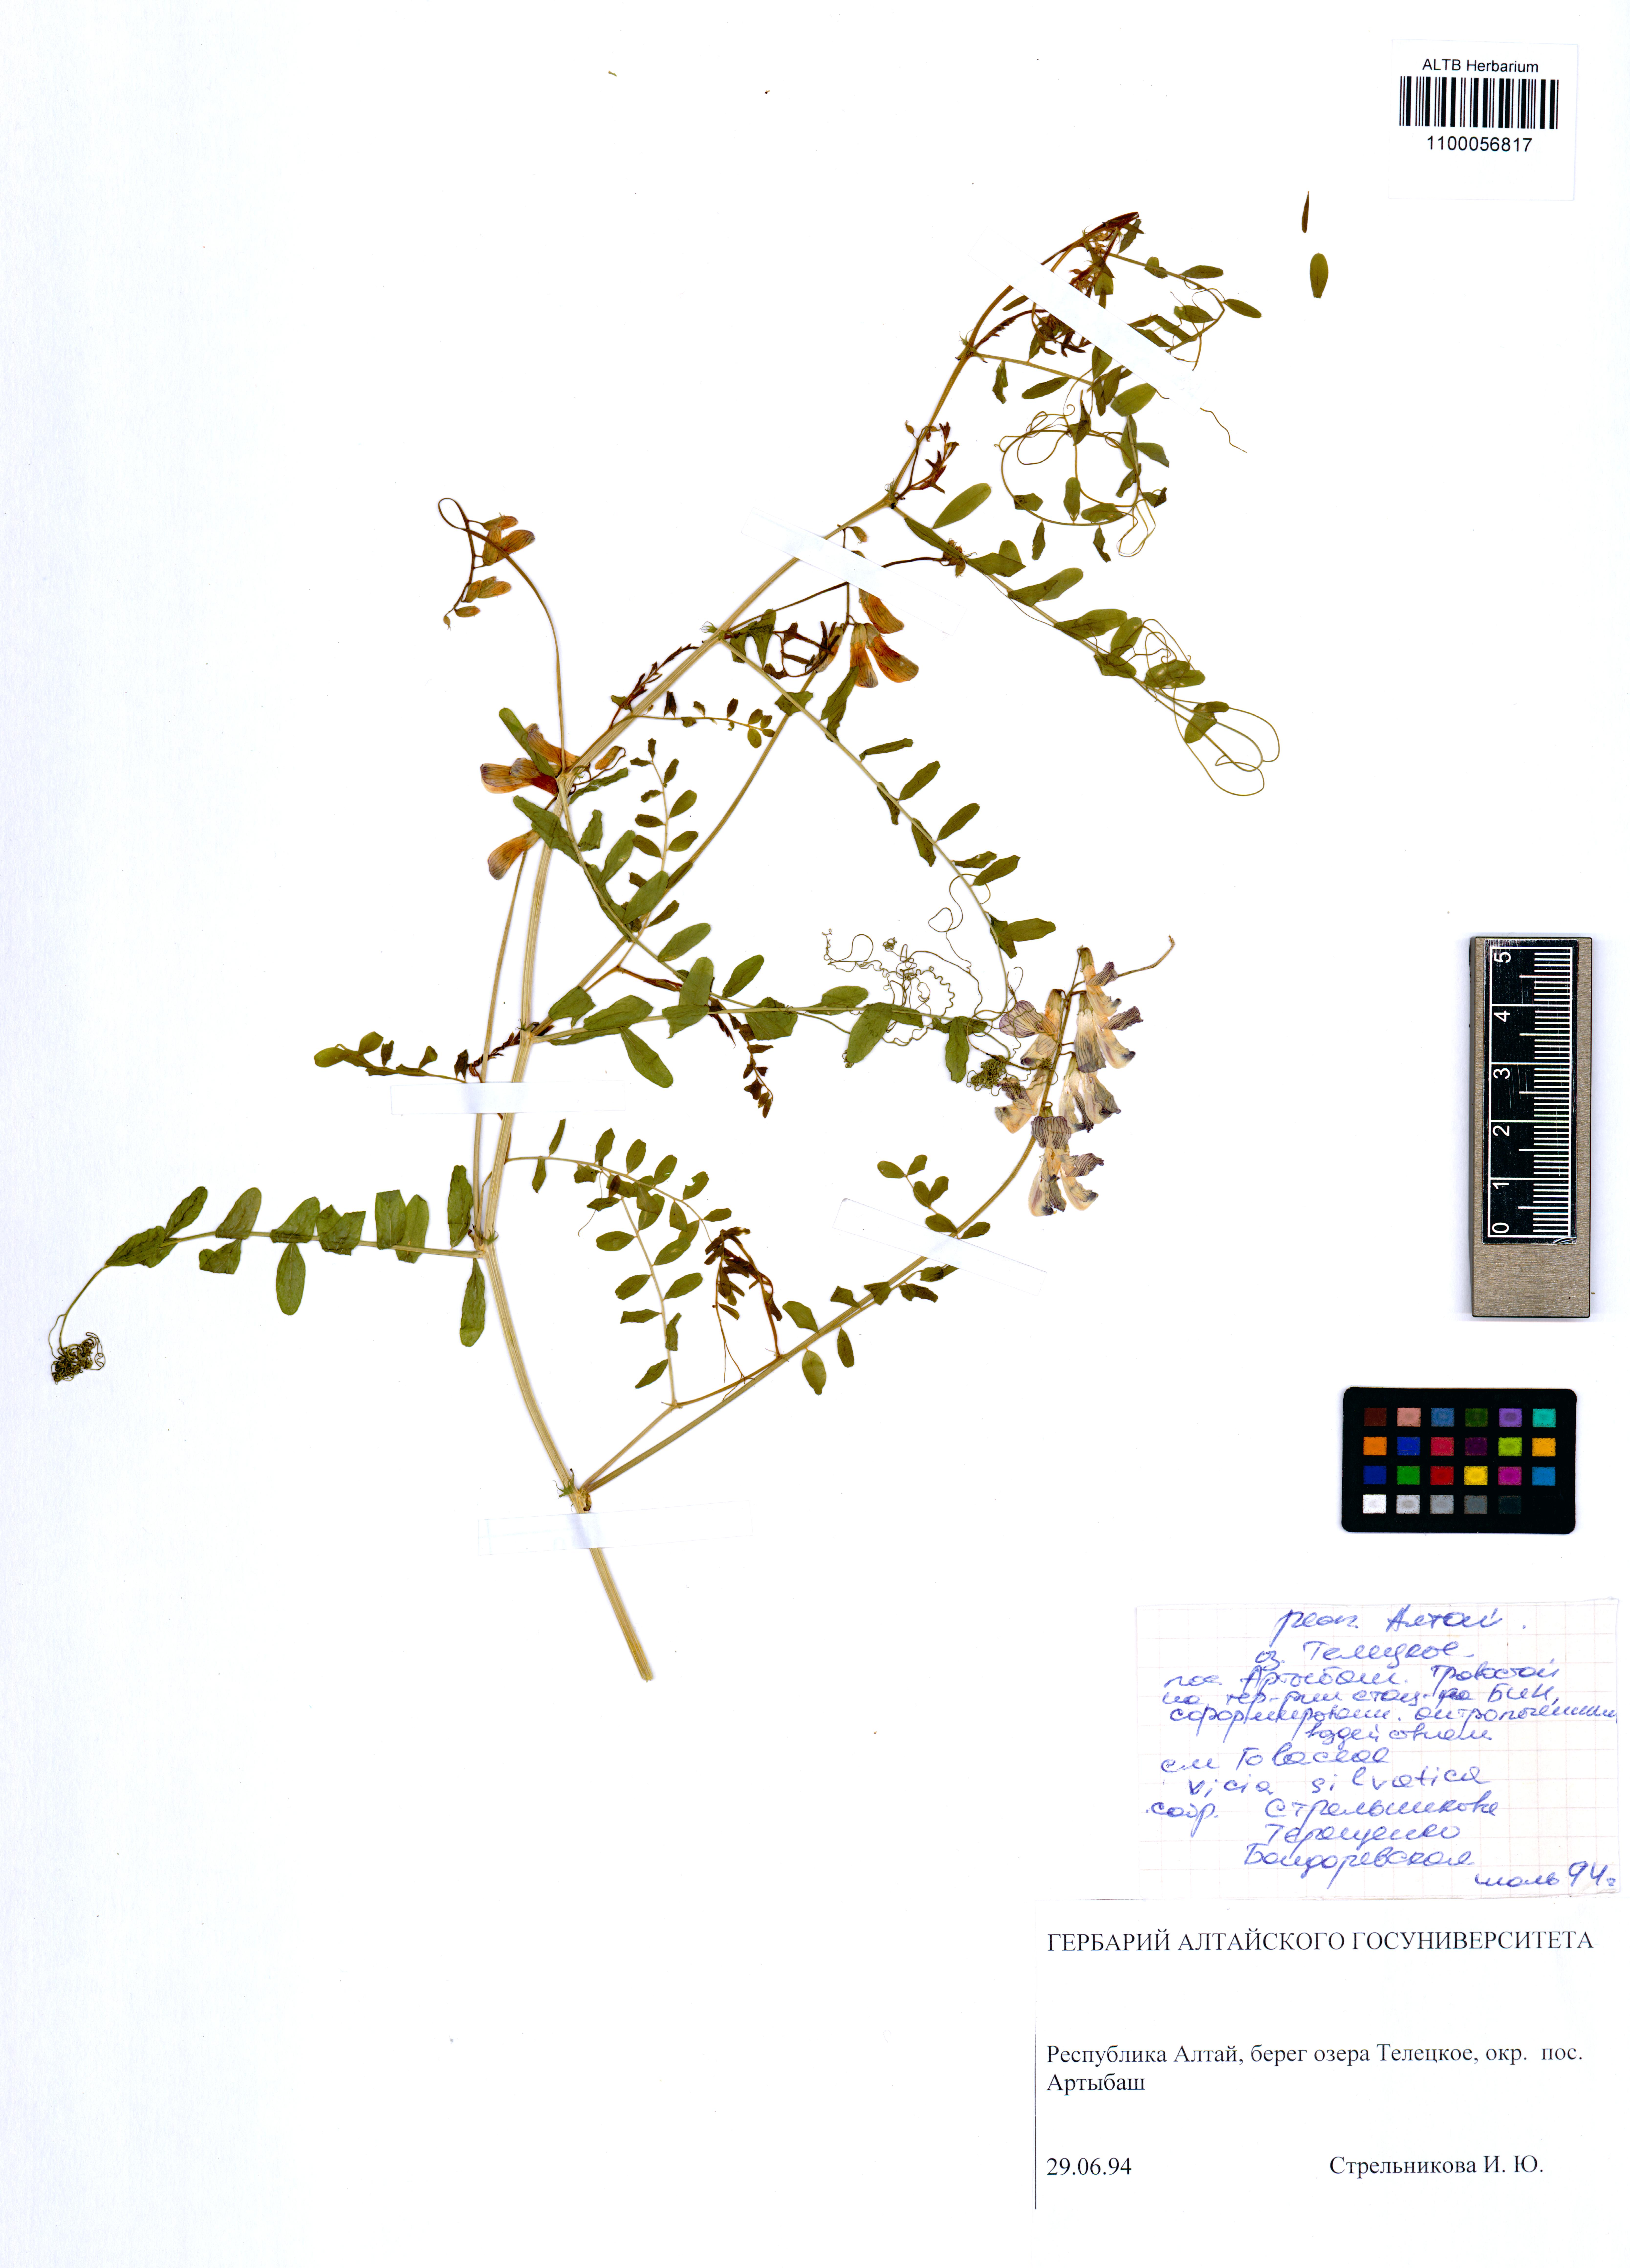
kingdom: Plantae
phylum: Tracheophyta
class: Magnoliopsida
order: Fabales
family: Fabaceae
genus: Vicia
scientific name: Vicia sylvatica
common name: Wood vetch
